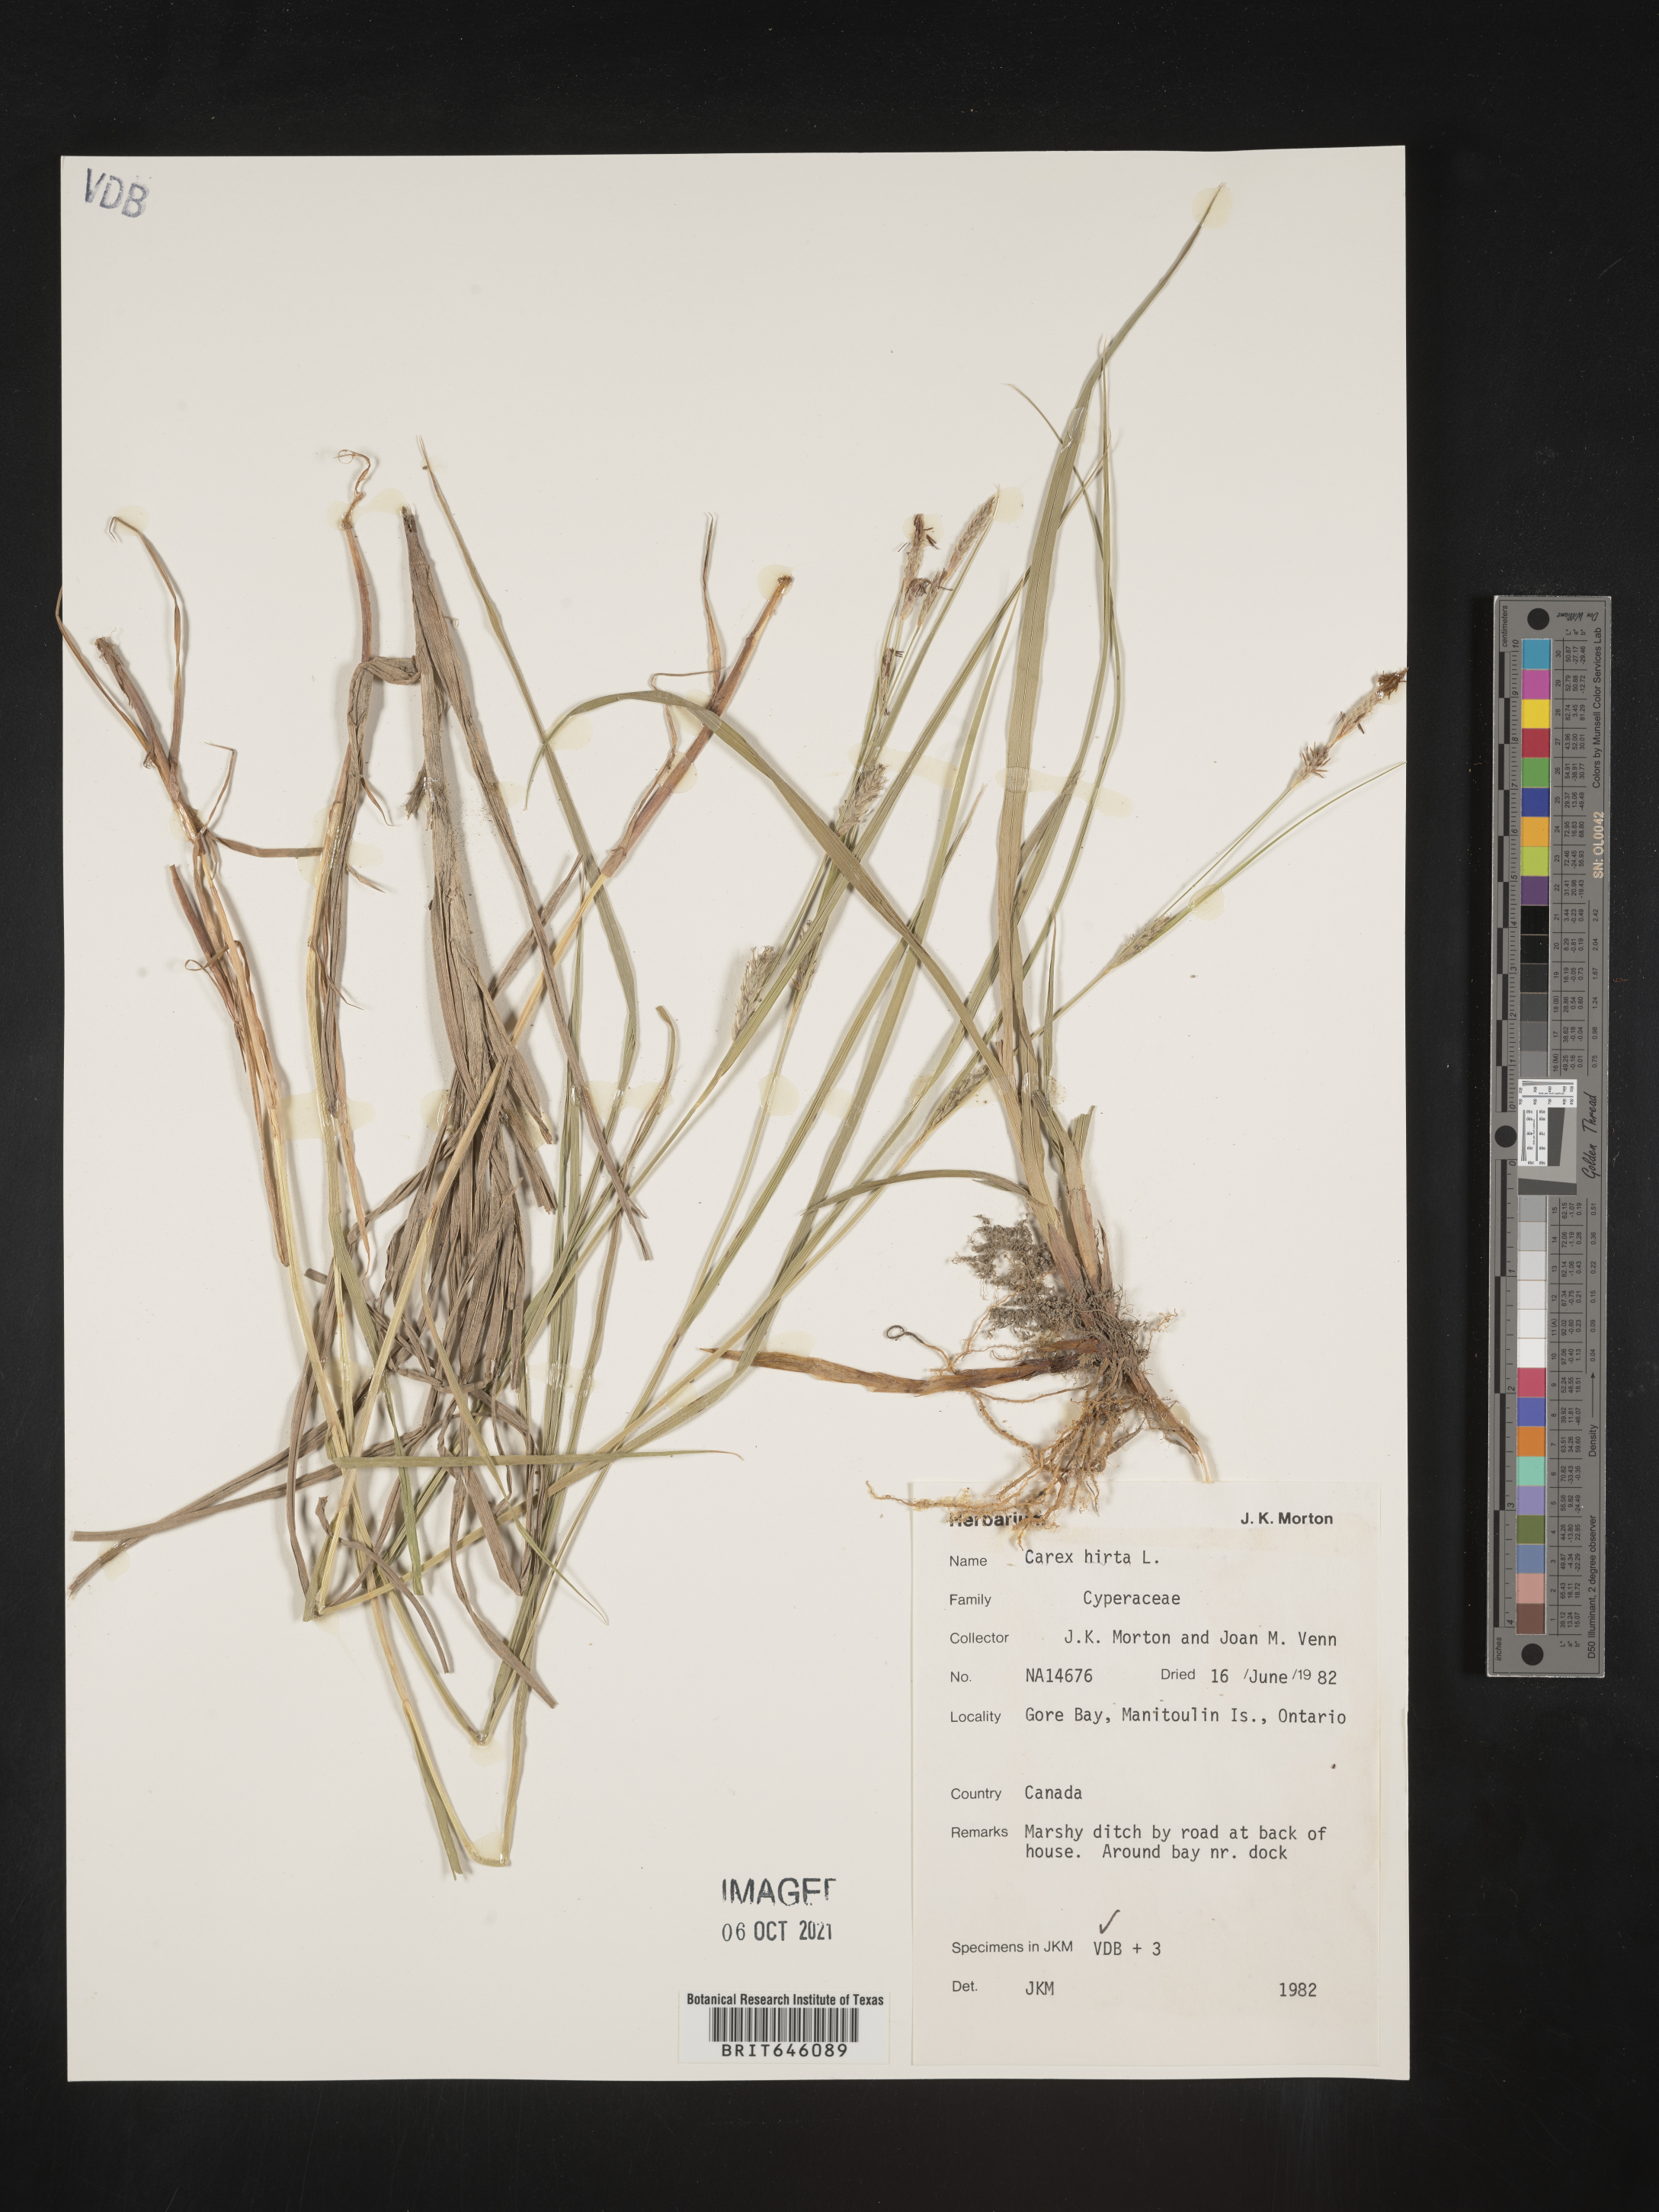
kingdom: Plantae
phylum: Tracheophyta
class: Liliopsida
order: Poales
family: Cyperaceae
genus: Carex
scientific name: Carex hirta
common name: Hairy sedge
